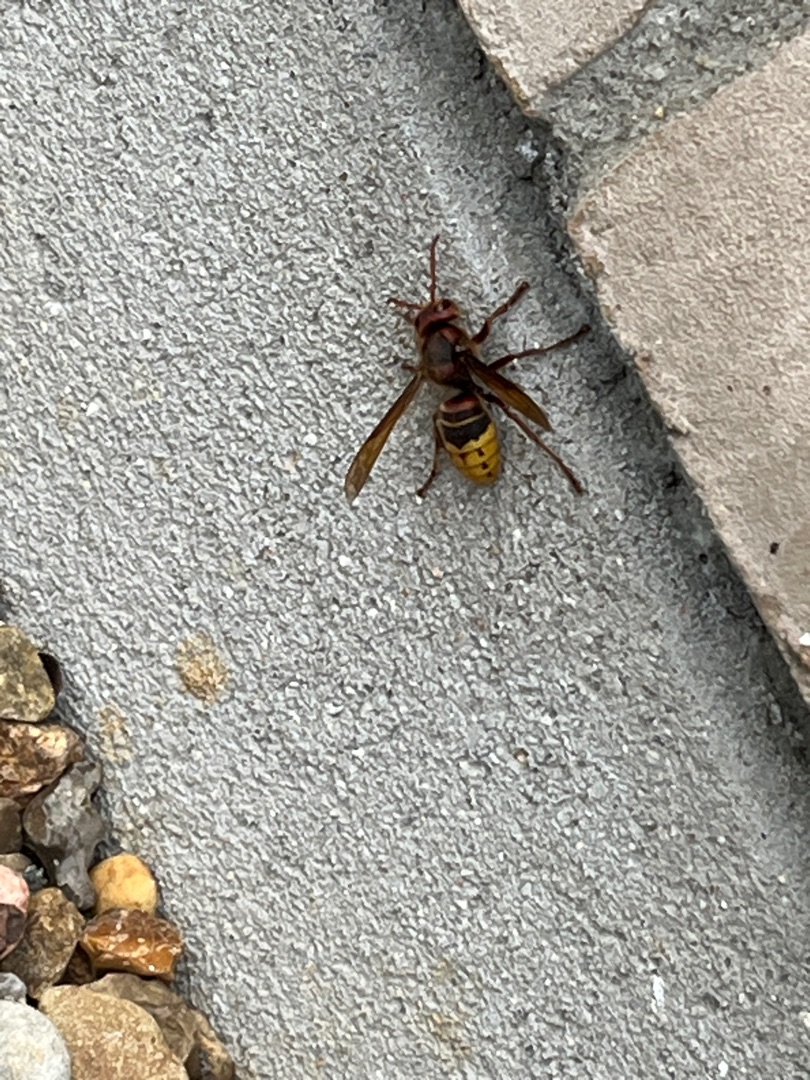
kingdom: Animalia
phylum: Arthropoda
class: Insecta
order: Hymenoptera
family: Vespidae
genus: Vespa
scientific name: Vespa crabro
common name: Stor gedehams
